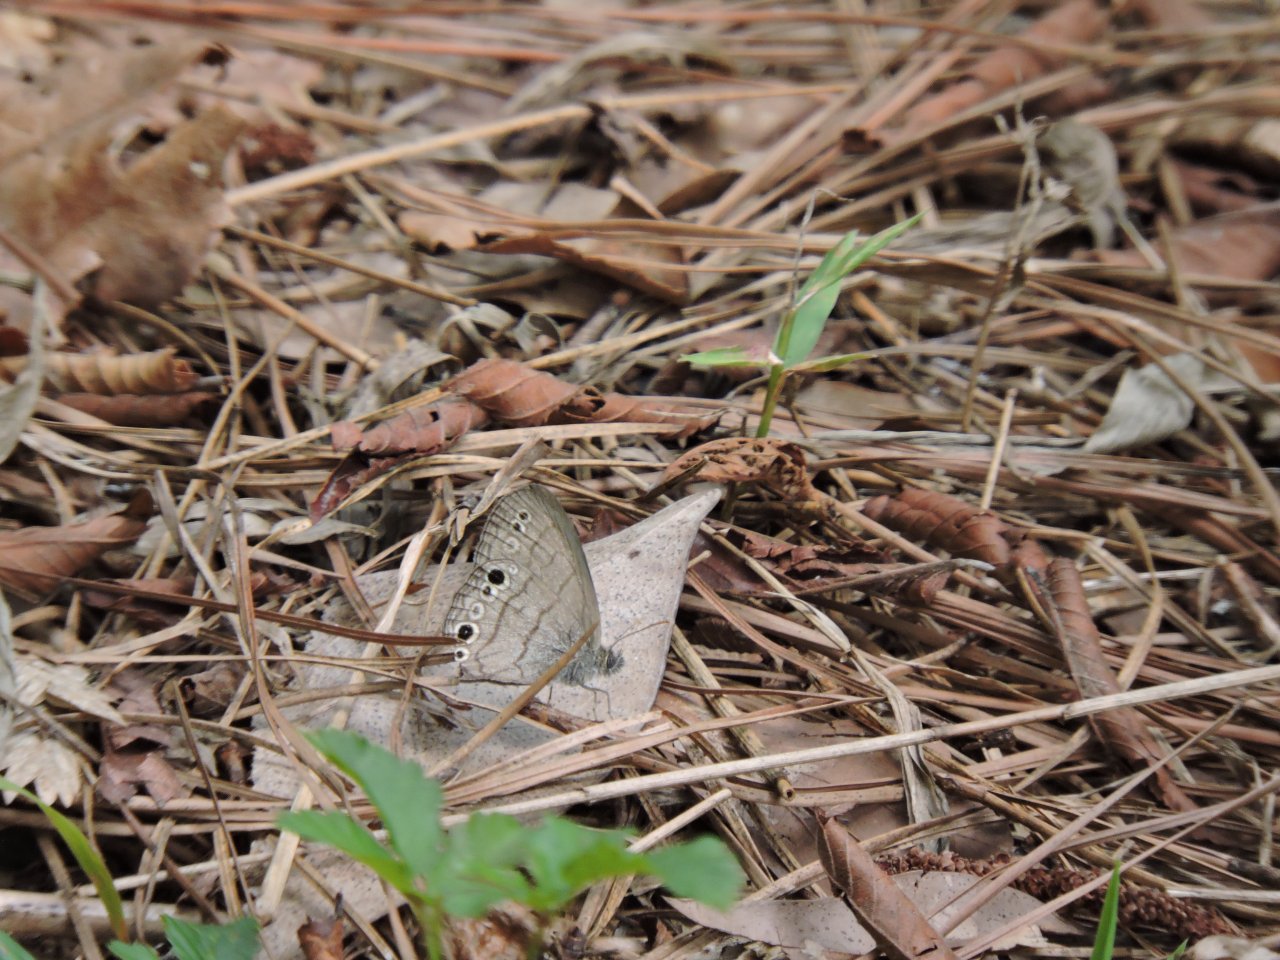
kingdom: Animalia
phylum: Arthropoda
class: Insecta
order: Lepidoptera
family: Nymphalidae
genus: Hermeuptychia
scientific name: Hermeuptychia hermes
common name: Carolina Satyr
